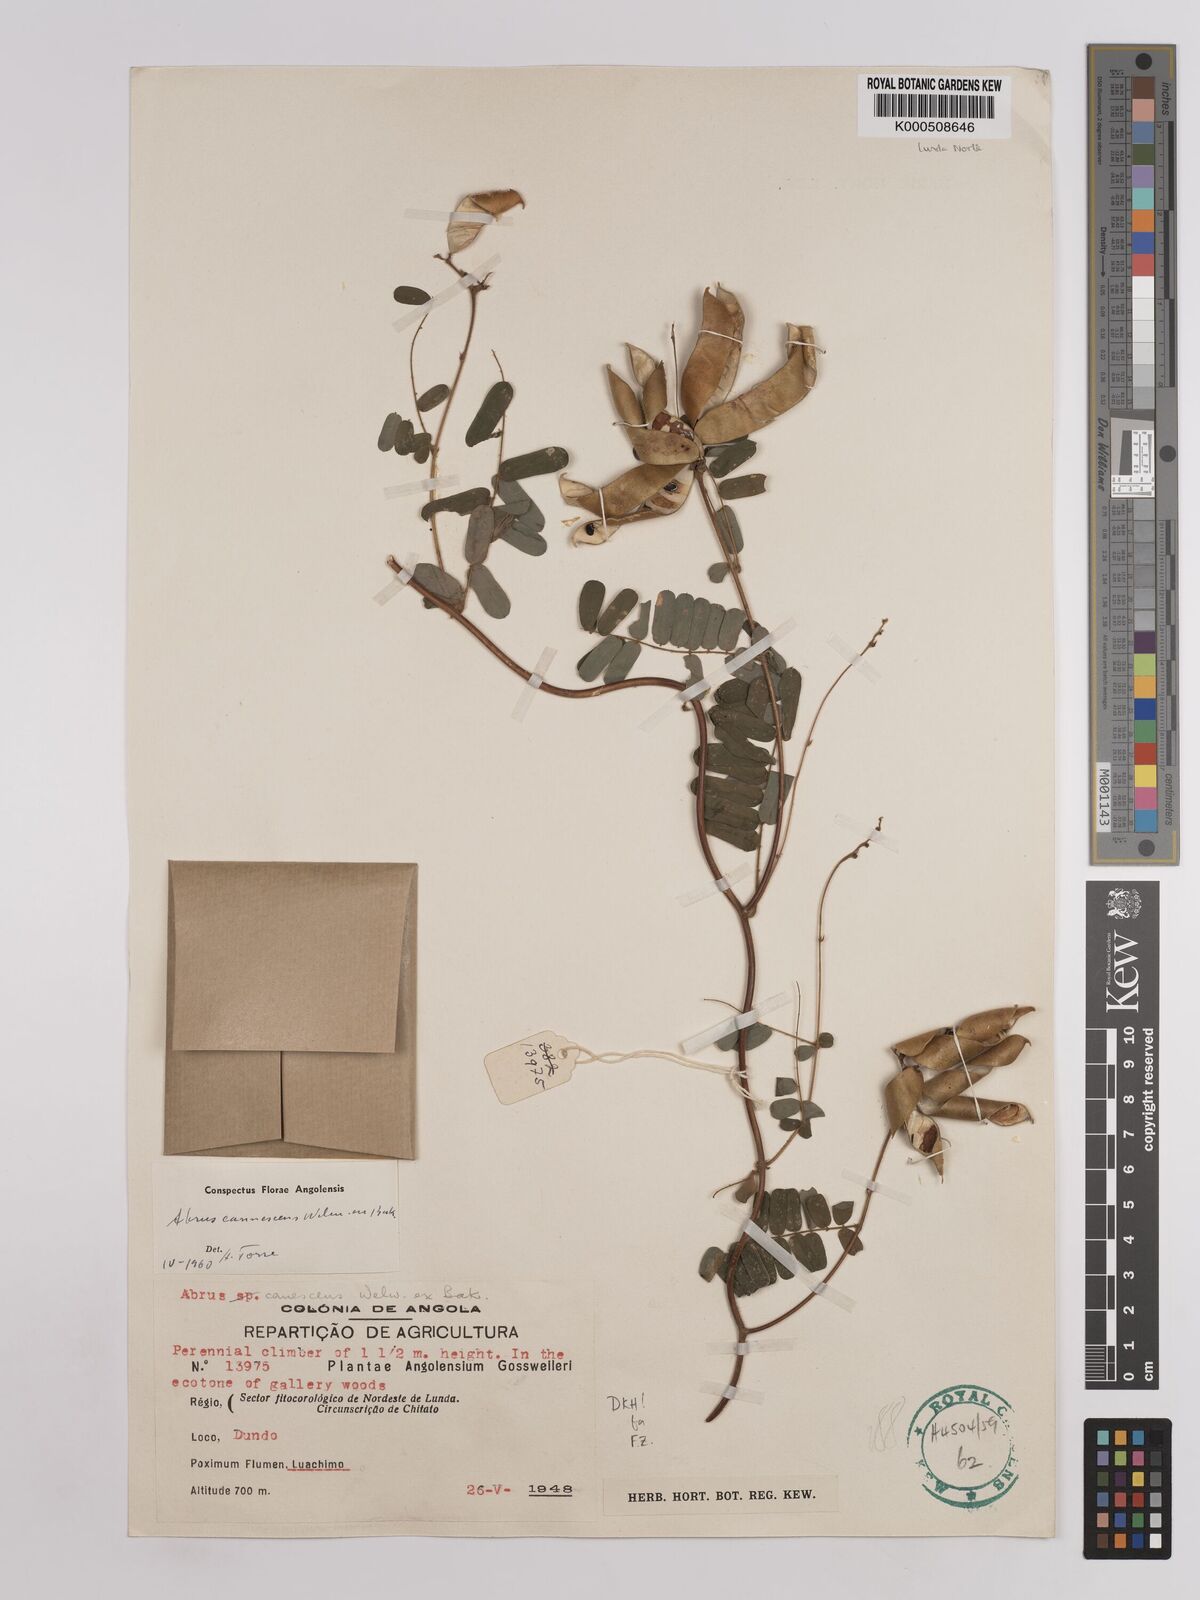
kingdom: Plantae
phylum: Tracheophyta
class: Magnoliopsida
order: Fabales
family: Fabaceae
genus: Abrus
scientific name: Abrus
